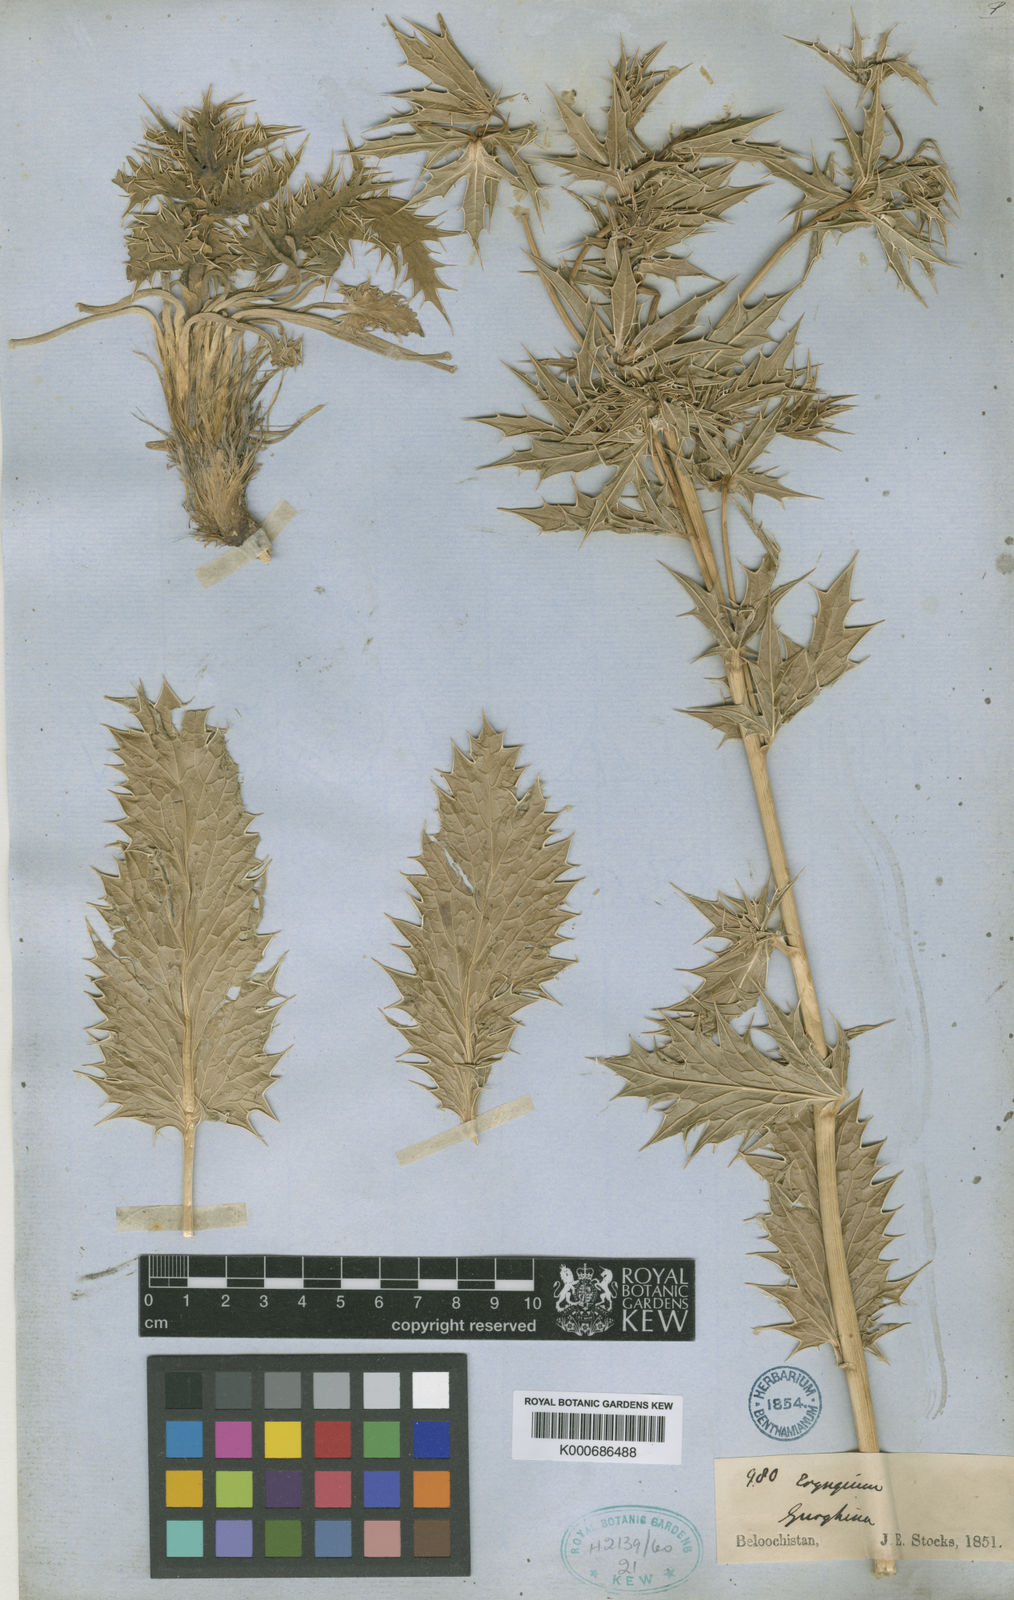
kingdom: Plantae
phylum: Tracheophyta
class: Magnoliopsida
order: Apiales
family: Apiaceae
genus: Eryngium
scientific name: Eryngium carlinoides
